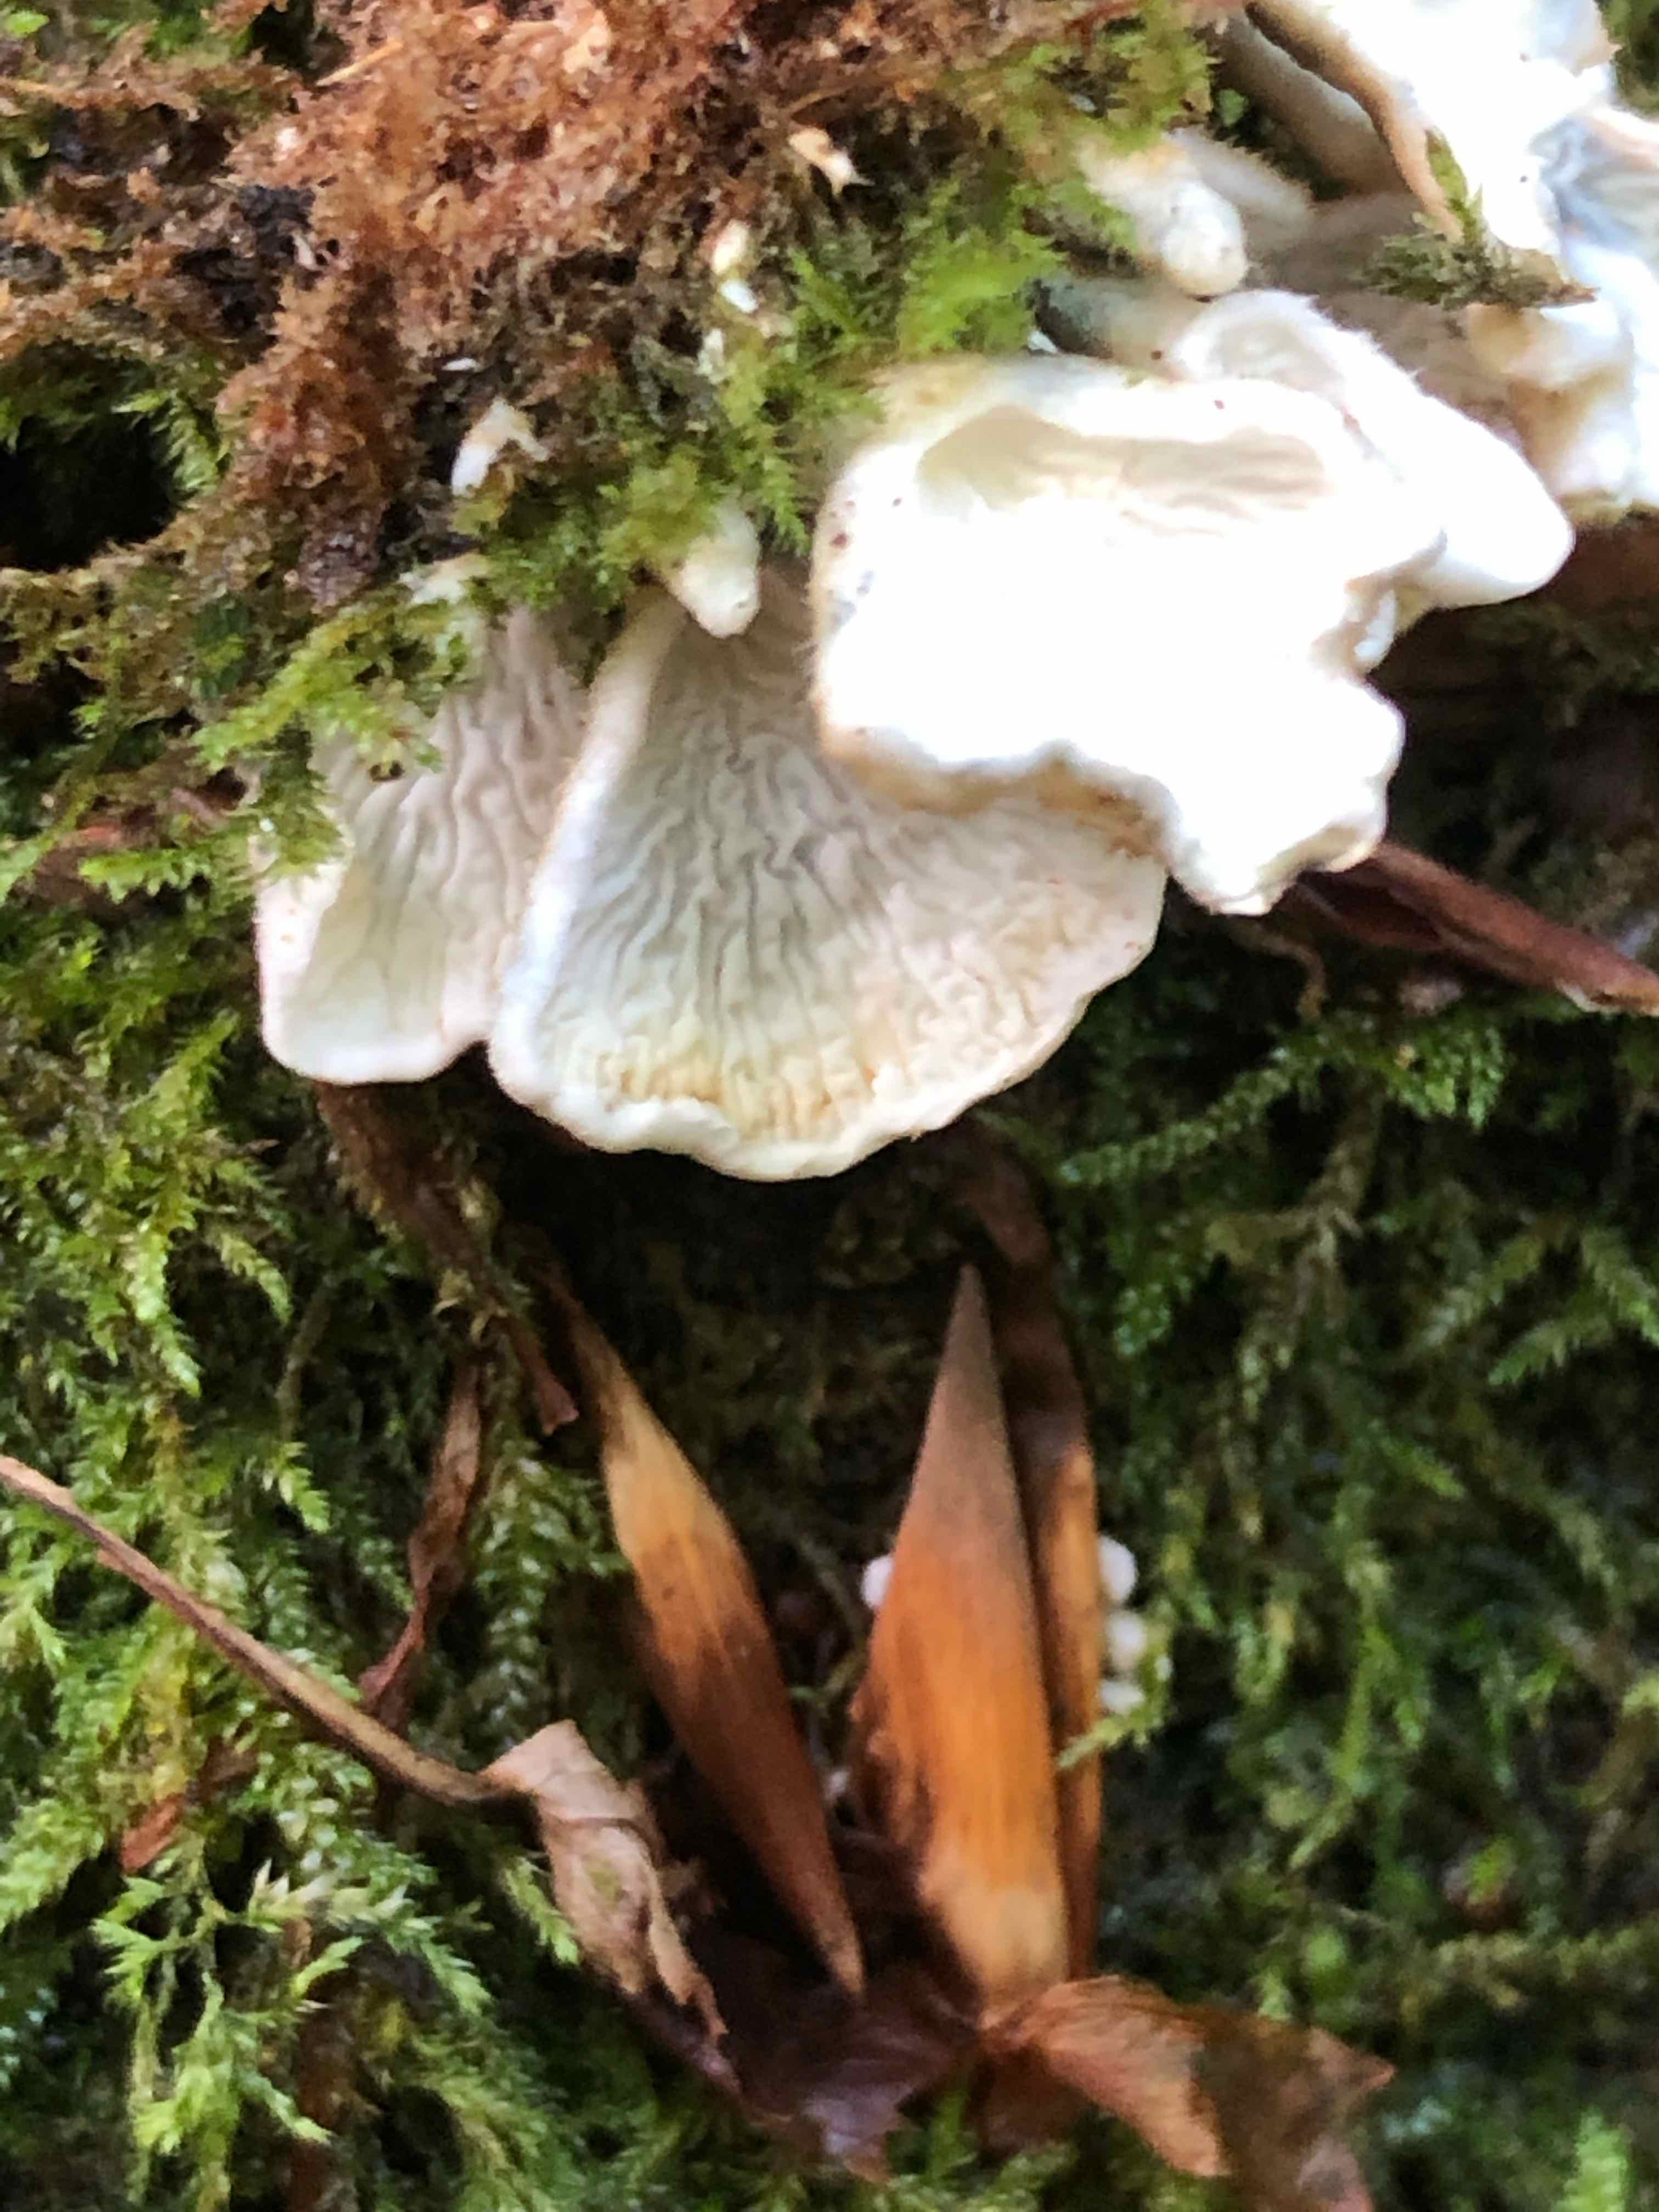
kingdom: Fungi
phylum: Basidiomycota
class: Agaricomycetes
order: Amylocorticiales
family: Amylocorticiaceae
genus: Plicaturopsis
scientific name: Plicaturopsis crispa
